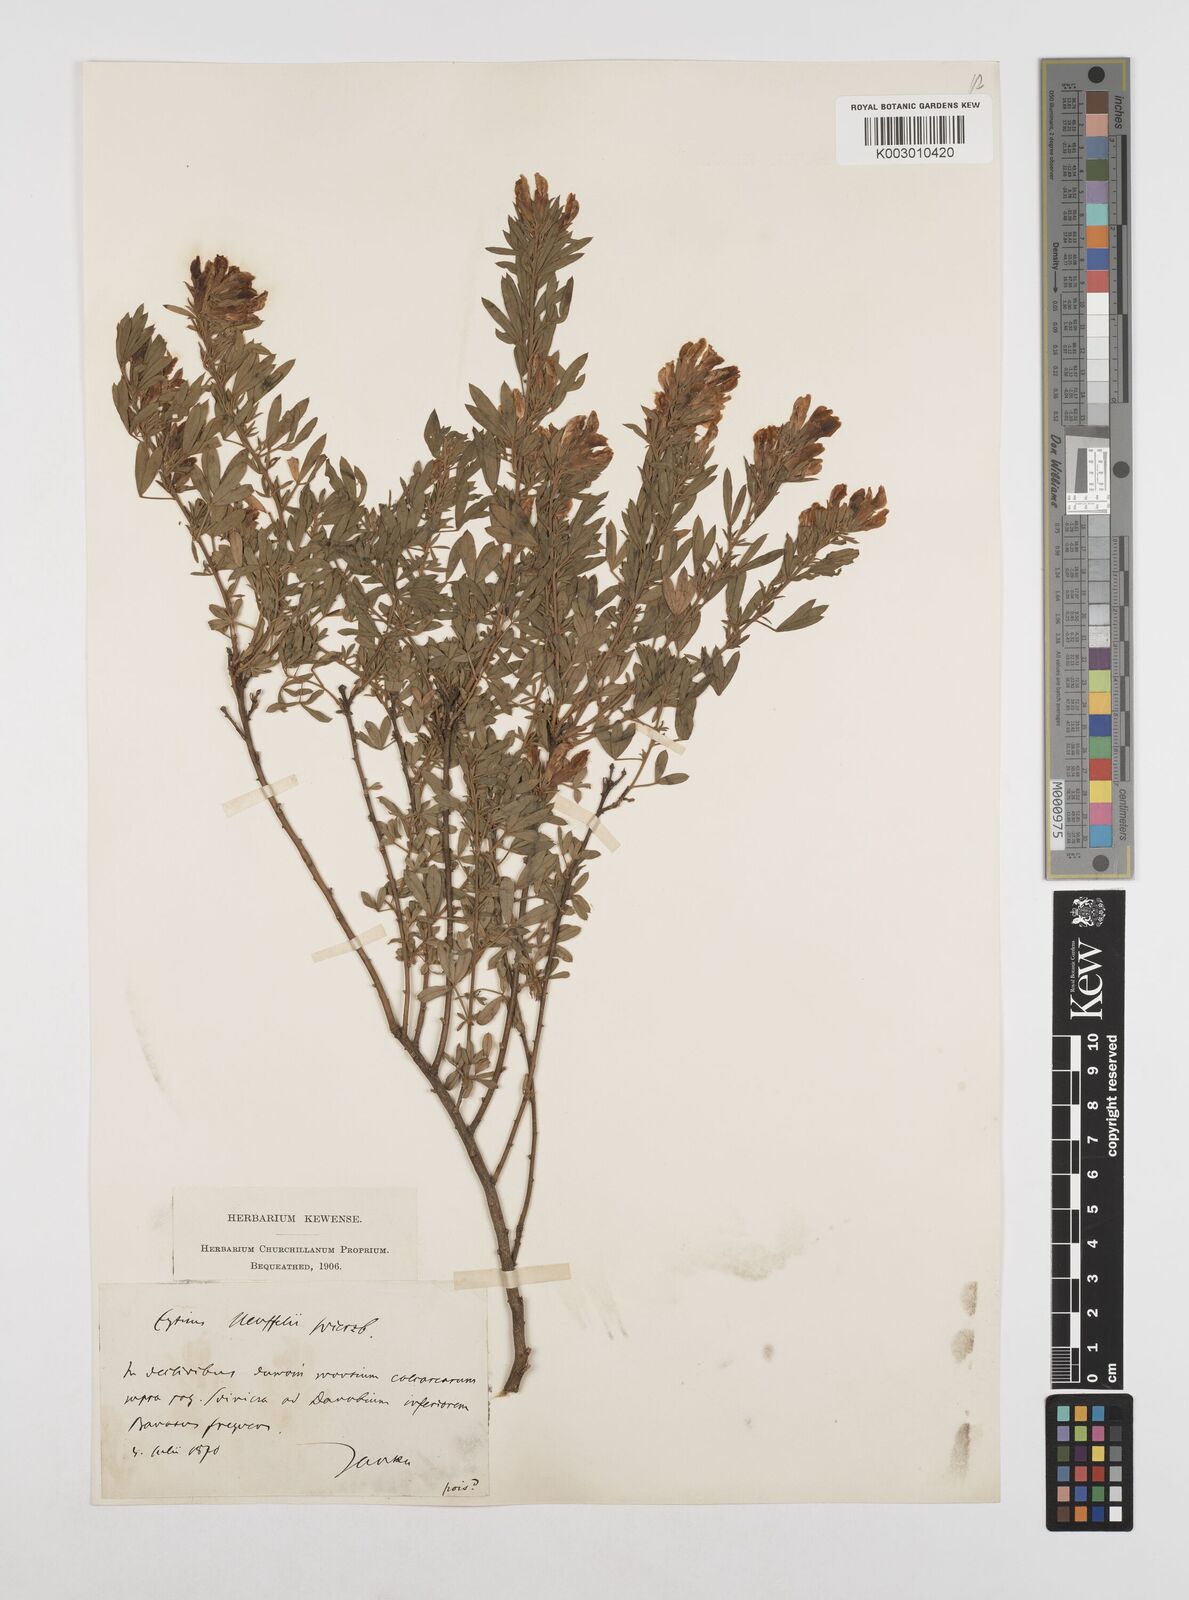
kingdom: Plantae
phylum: Tracheophyta
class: Magnoliopsida
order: Fabales
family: Fabaceae
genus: Cytisophyllum
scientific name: Cytisophyllum Cytisus heuffelii
